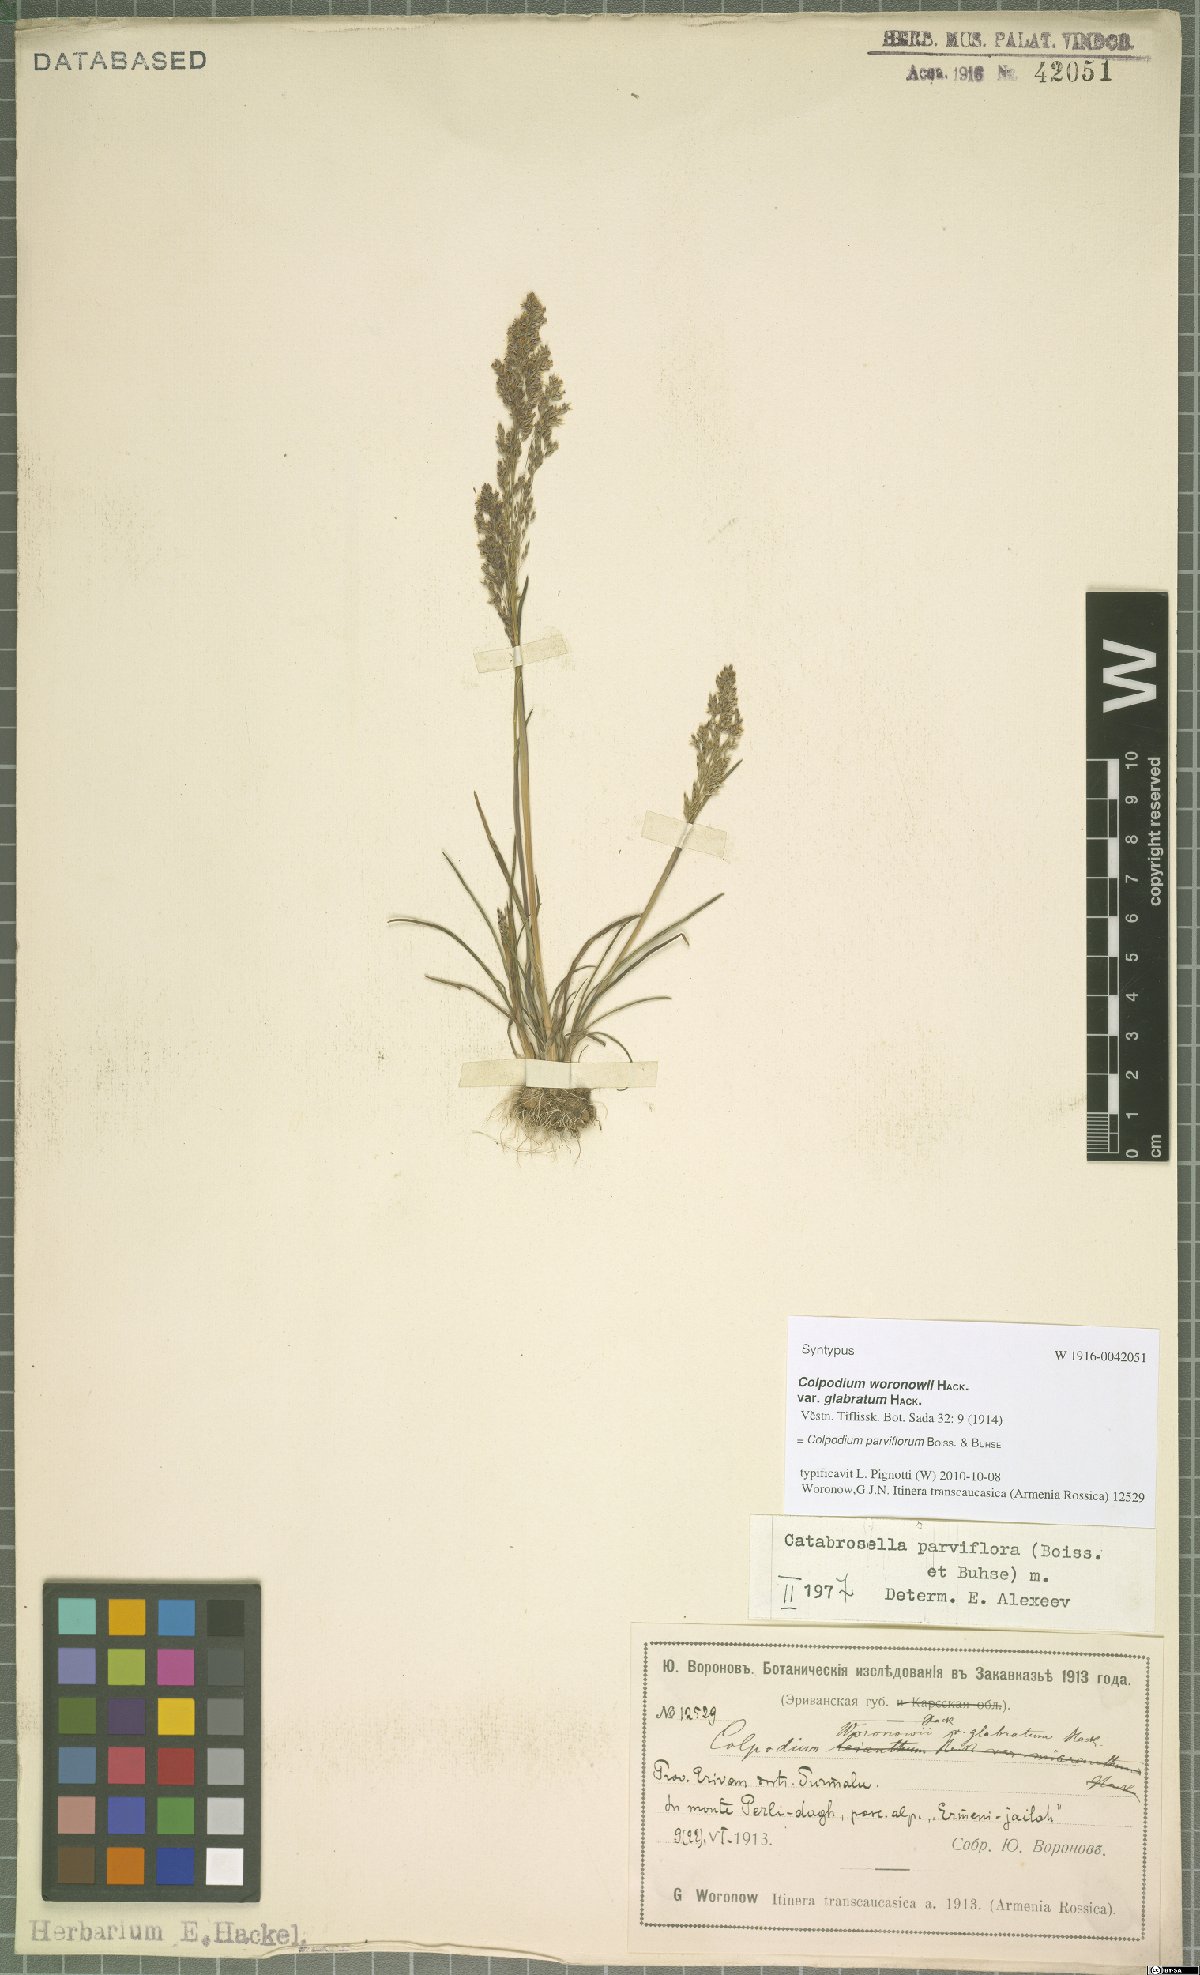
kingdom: Plantae
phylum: Tracheophyta
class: Liliopsida
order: Poales
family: Poaceae
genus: Catabrosella
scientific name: Catabrosella parviflora
